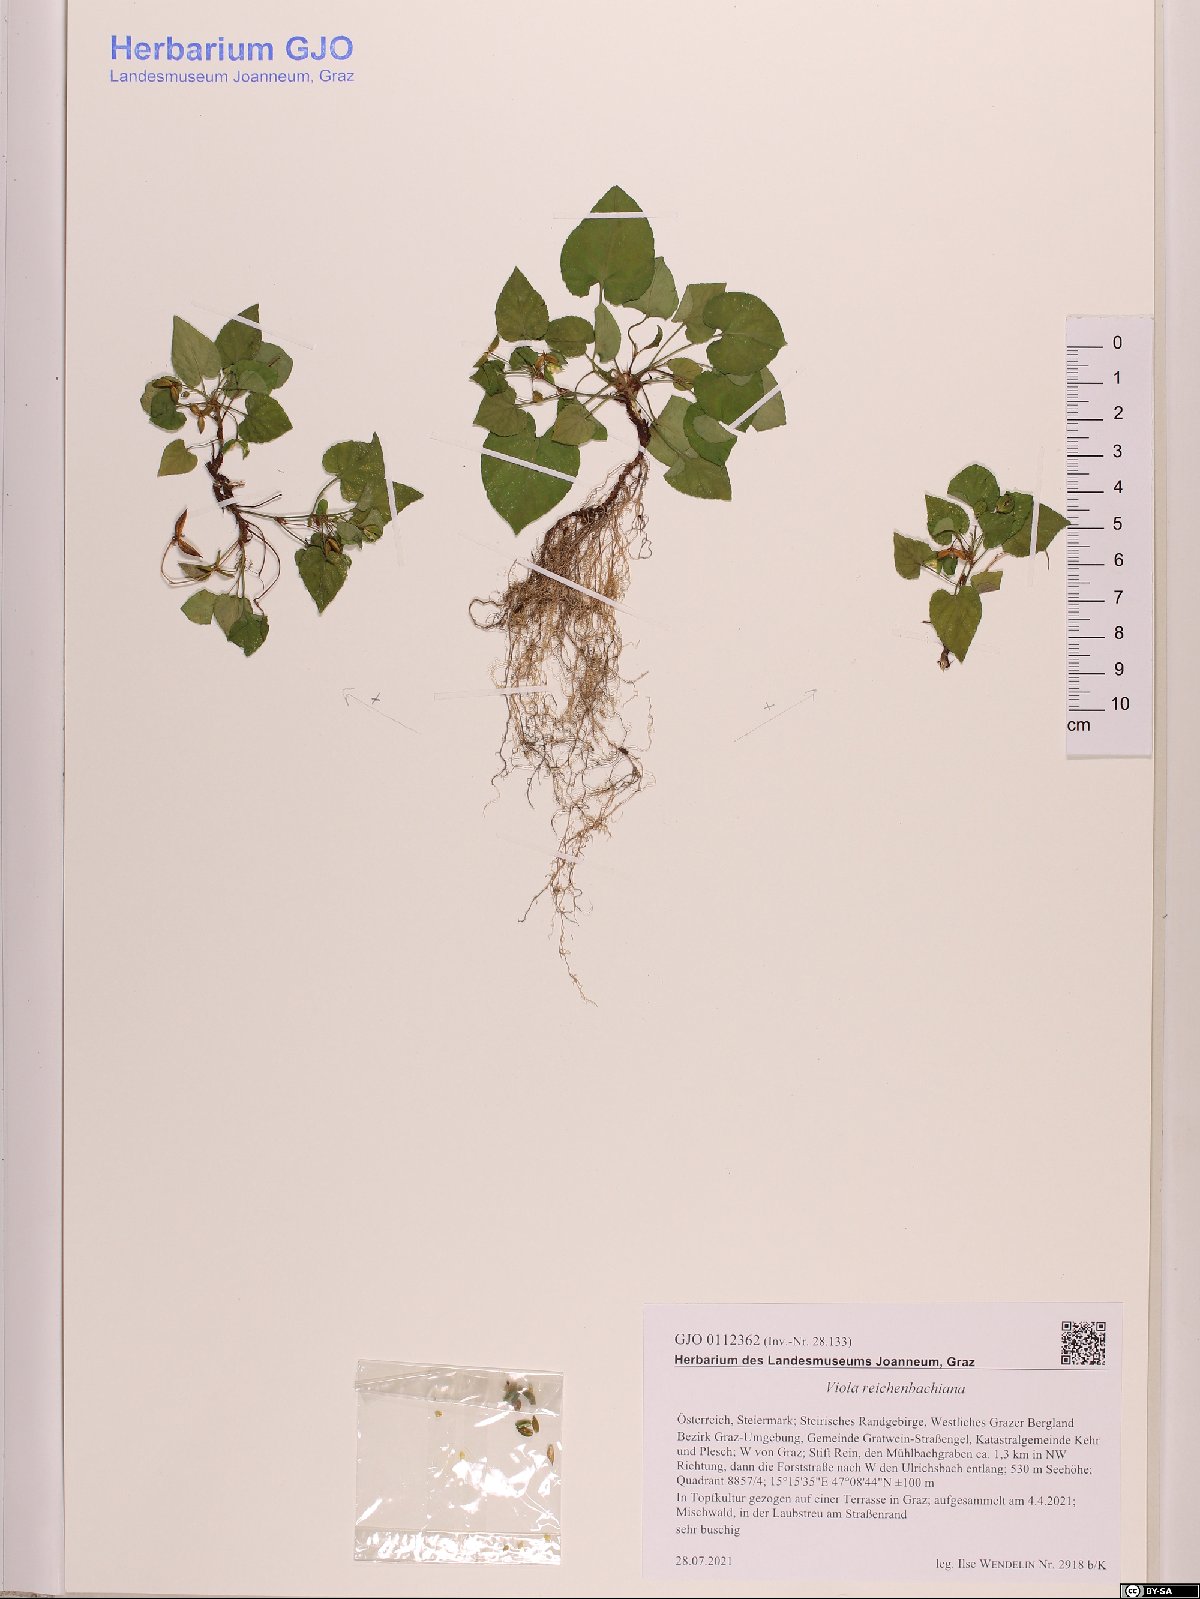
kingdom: Plantae
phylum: Tracheophyta
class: Magnoliopsida
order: Malpighiales
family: Violaceae
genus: Viola
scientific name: Viola reichenbachiana
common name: Early dog-violet
